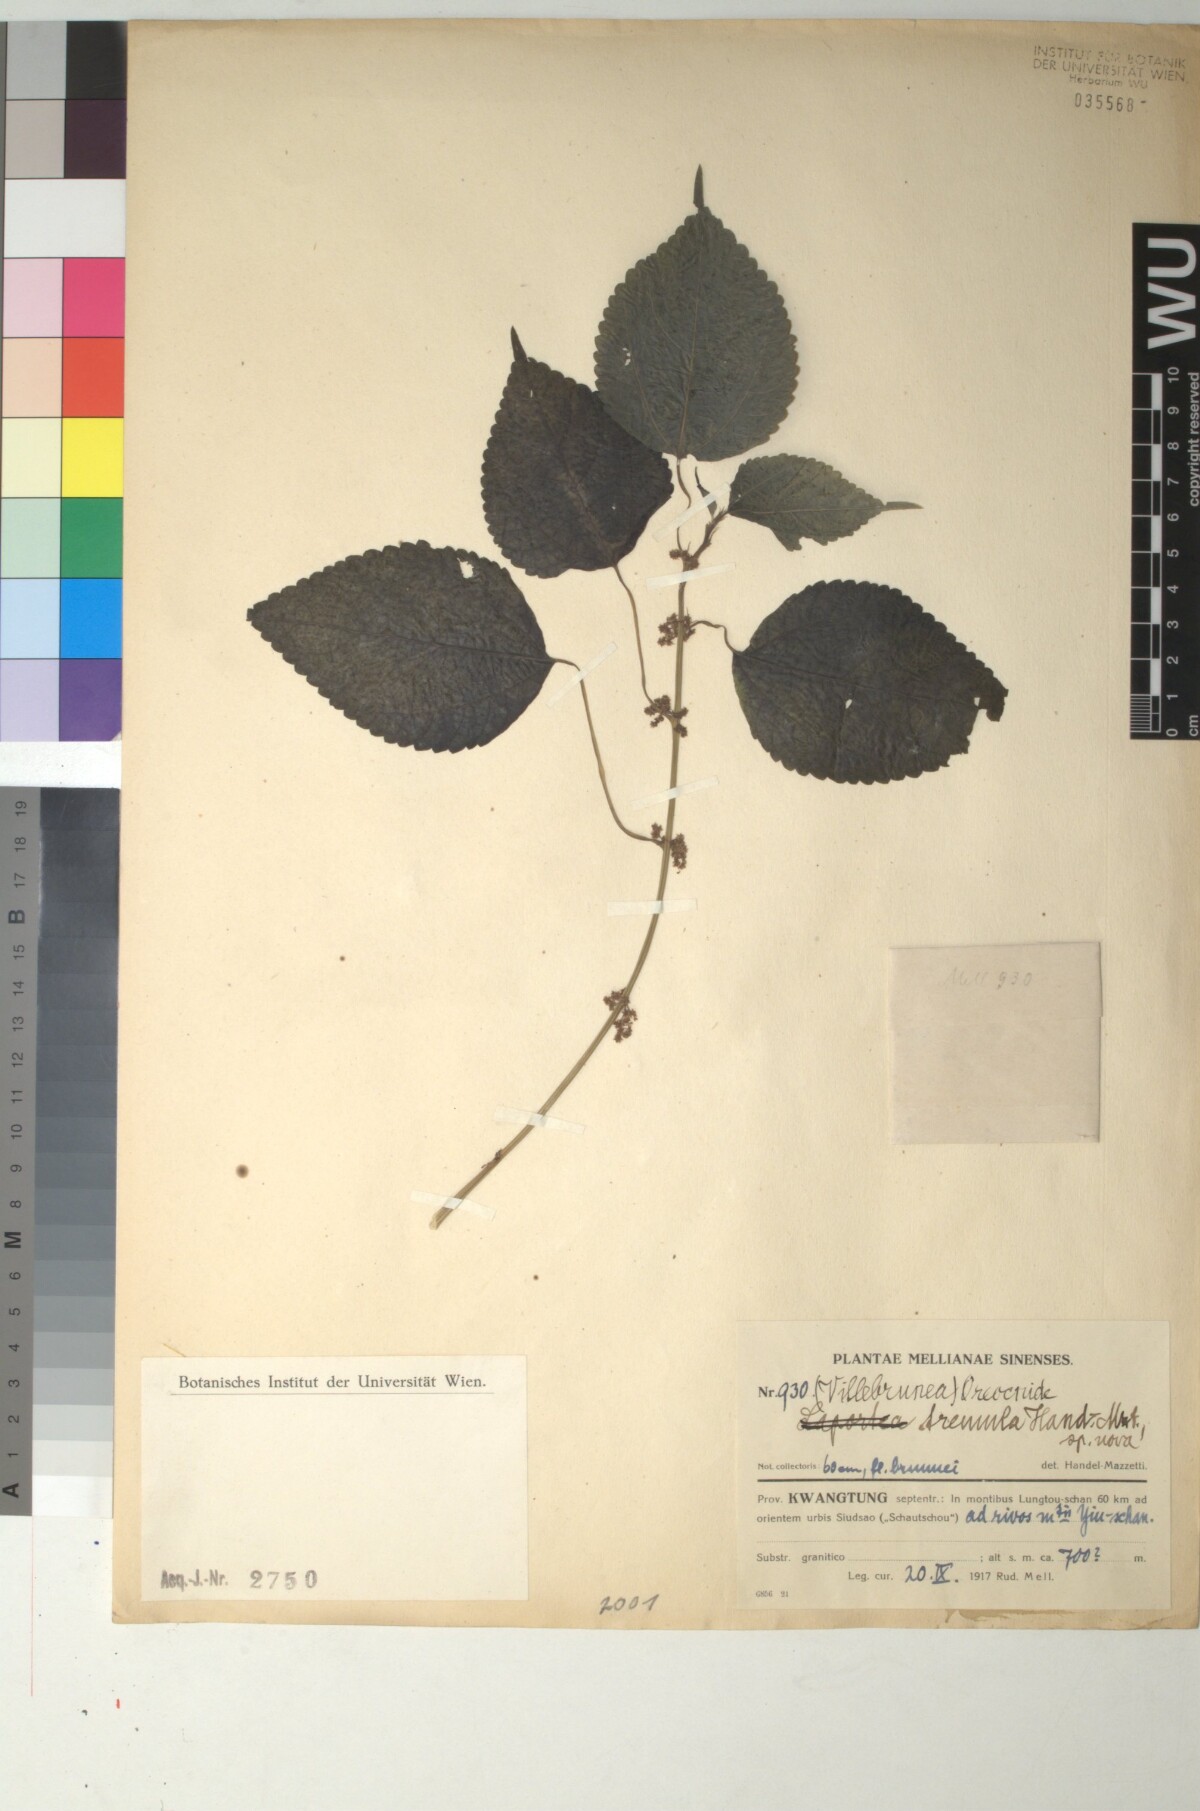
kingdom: Plantae
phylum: Tracheophyta
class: Magnoliopsida
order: Rosales
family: Urticaceae
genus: Archiboehmeria
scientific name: Archiboehmeria atrata
